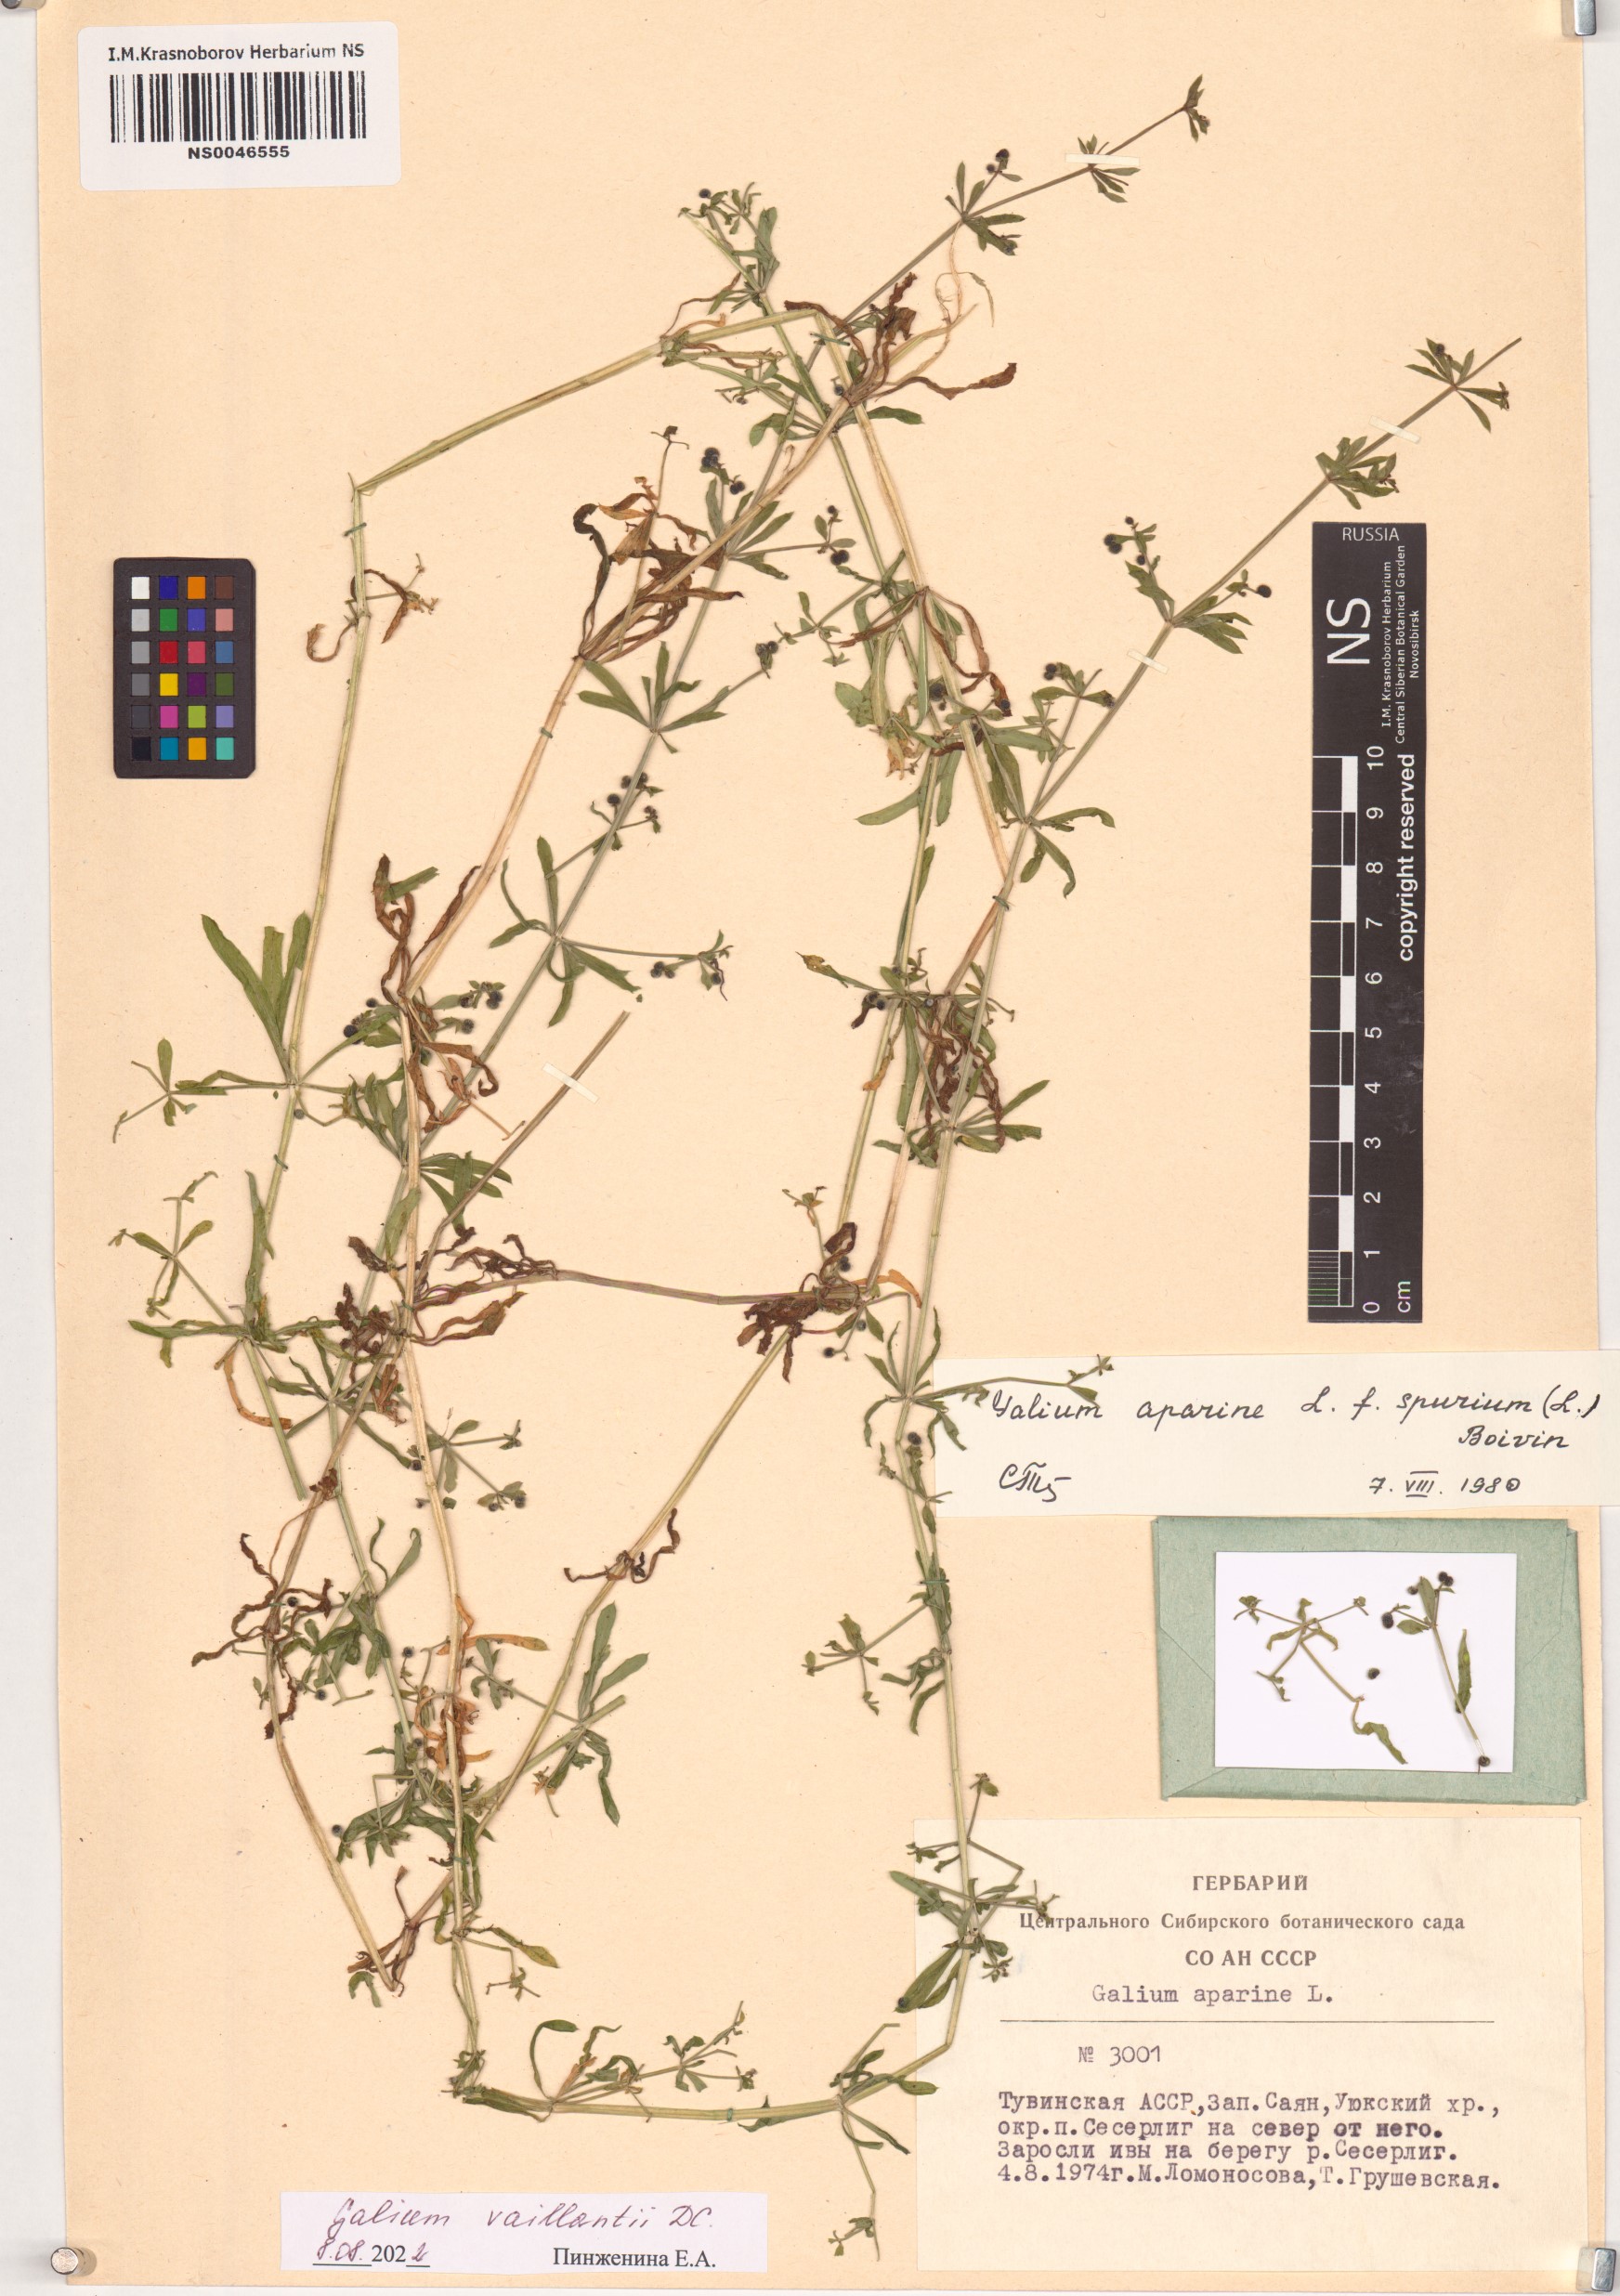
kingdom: Plantae
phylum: Tracheophyta
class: Magnoliopsida
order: Gentianales
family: Rubiaceae
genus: Galium
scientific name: Galium spurium
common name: False cleavers
